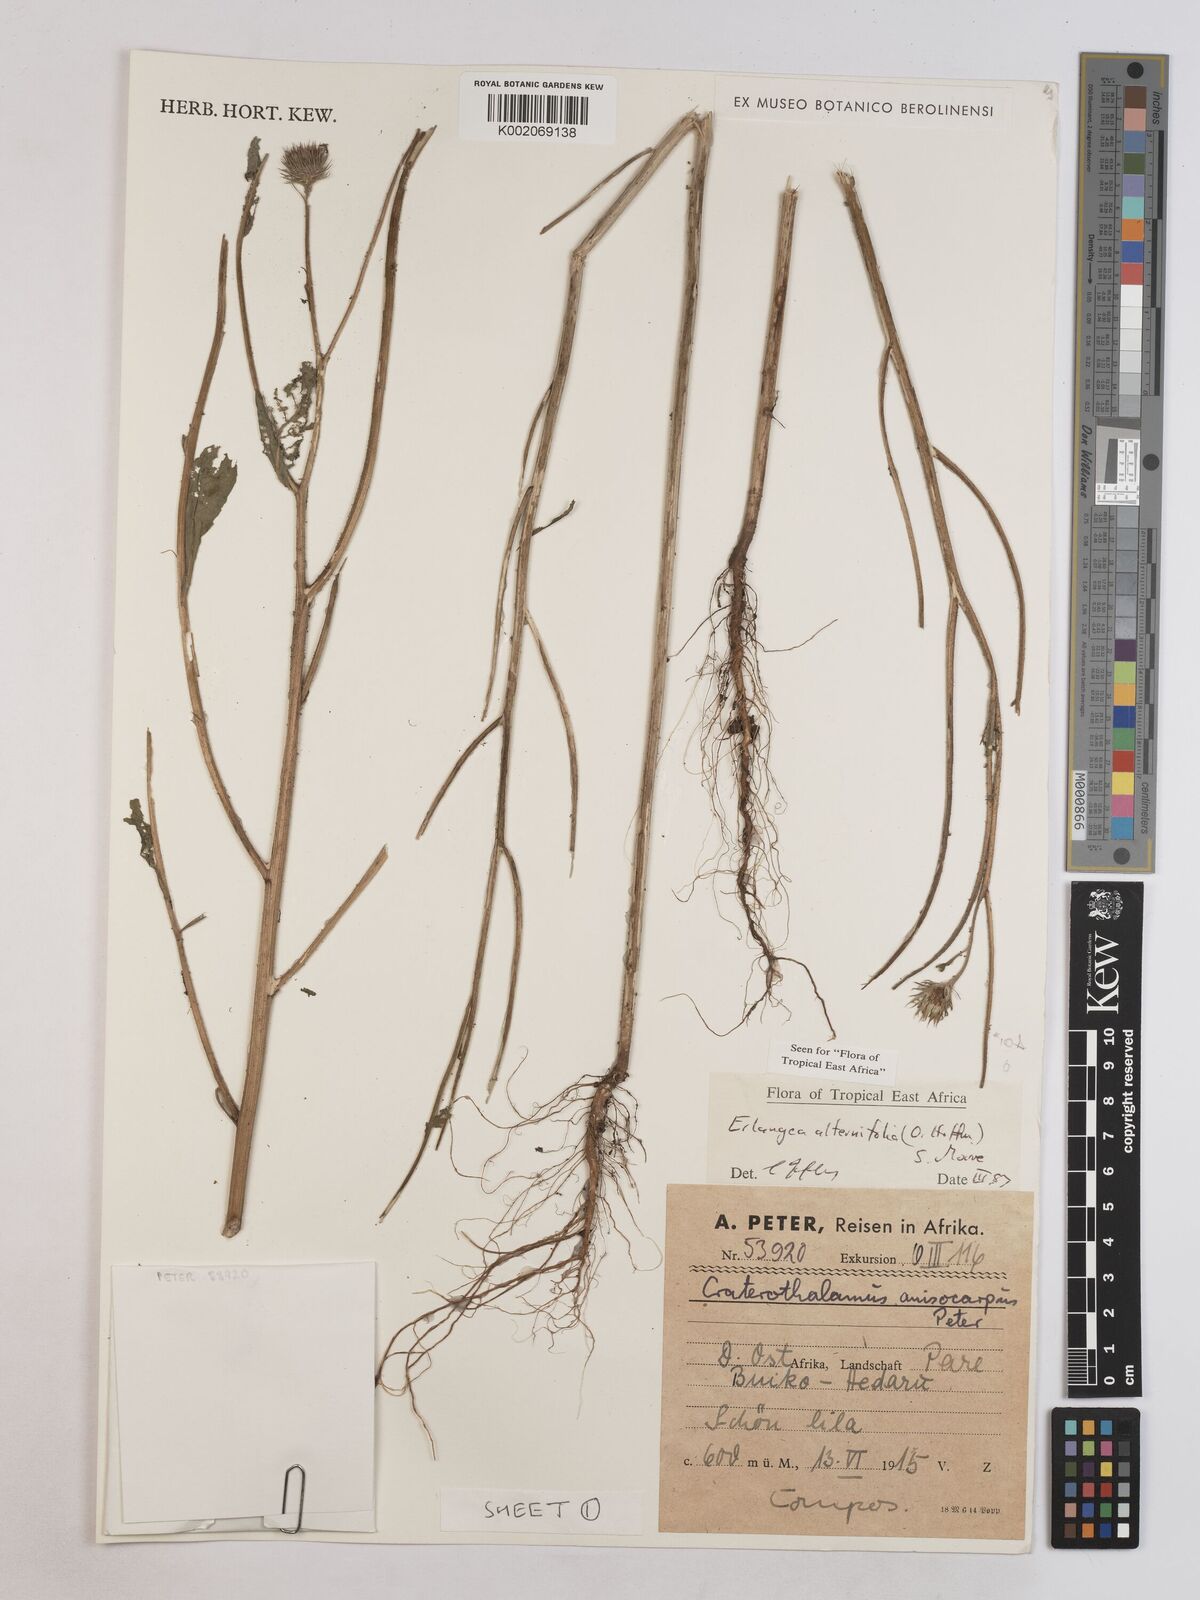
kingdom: Plantae
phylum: Tracheophyta
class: Magnoliopsida
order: Asterales
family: Asteraceae
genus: Erlangea
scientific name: Erlangea alternifolia
